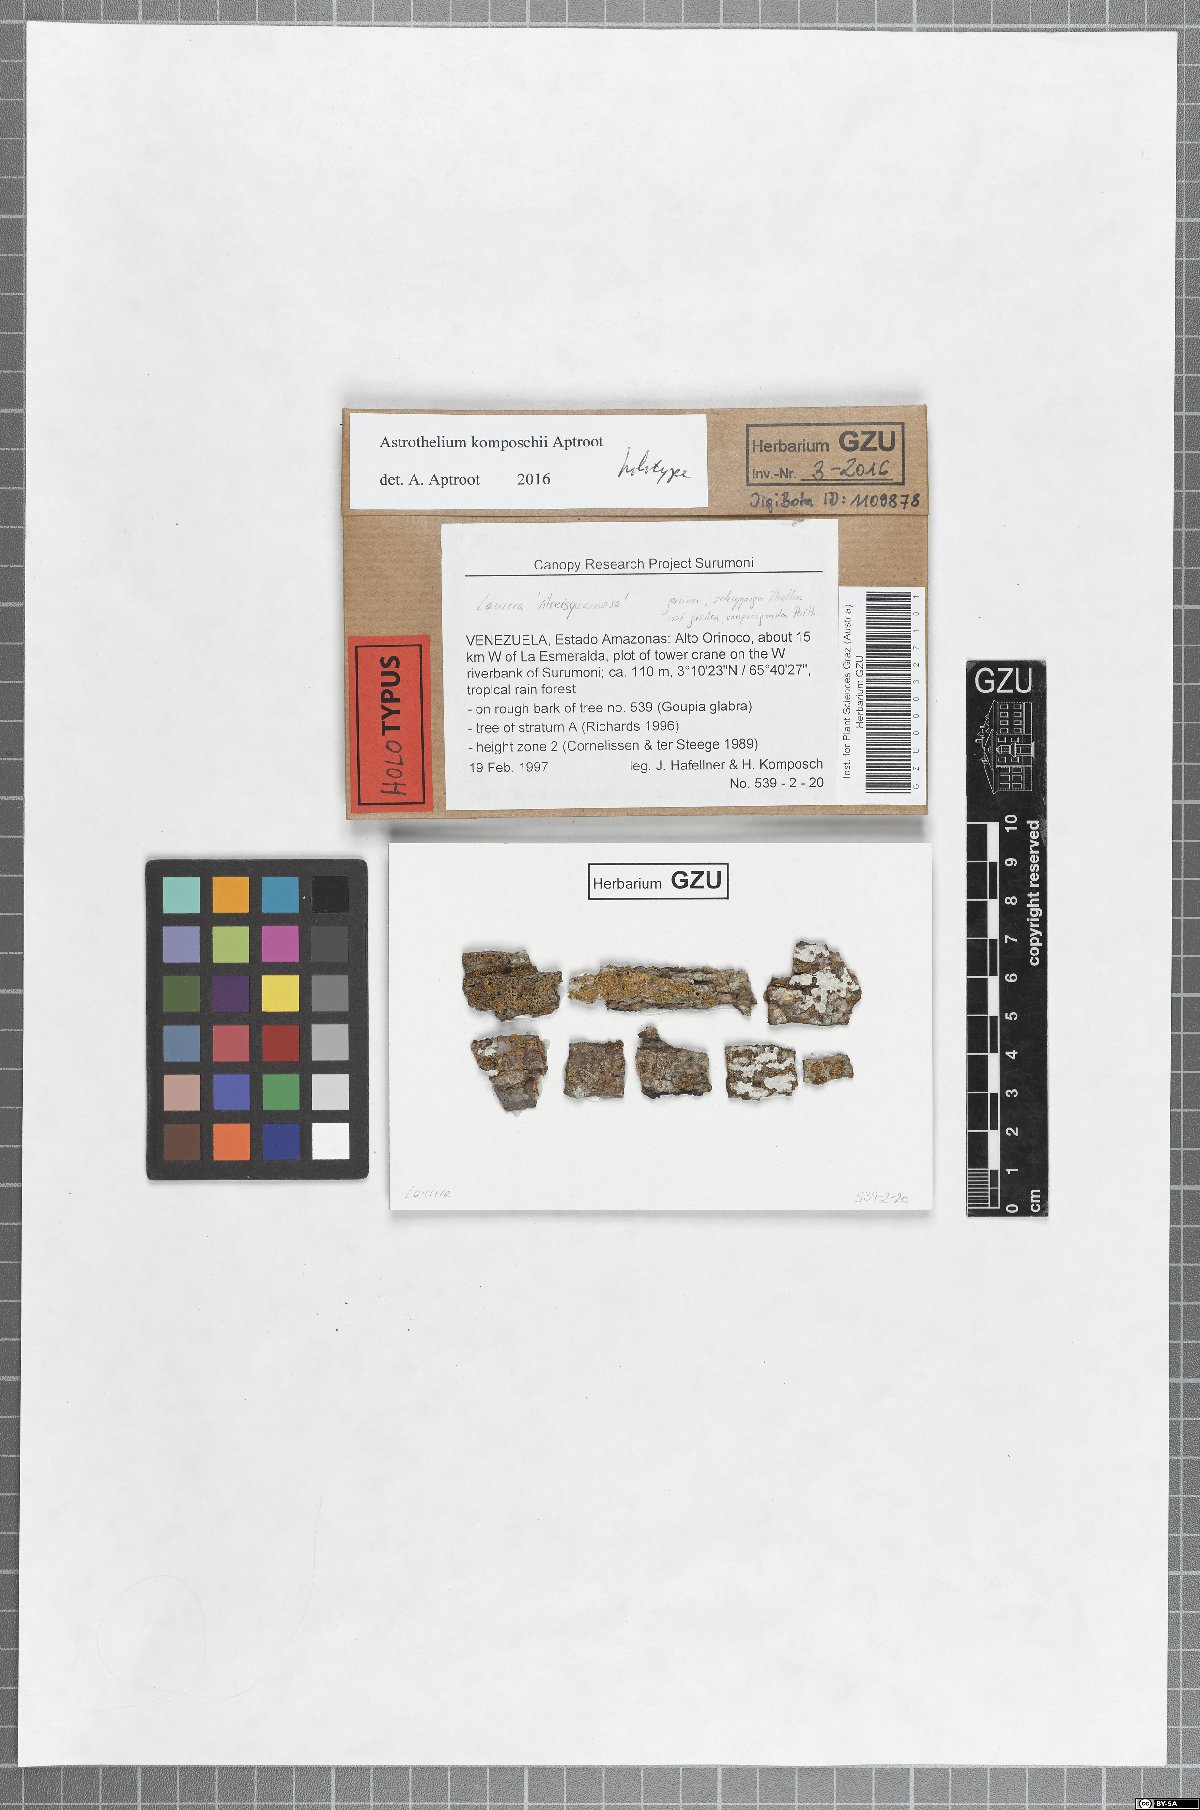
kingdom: Fungi
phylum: Ascomycota
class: Dothideomycetes
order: Trypetheliales
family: Trypetheliaceae
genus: Astrothelium
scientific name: Astrothelium komposchii
